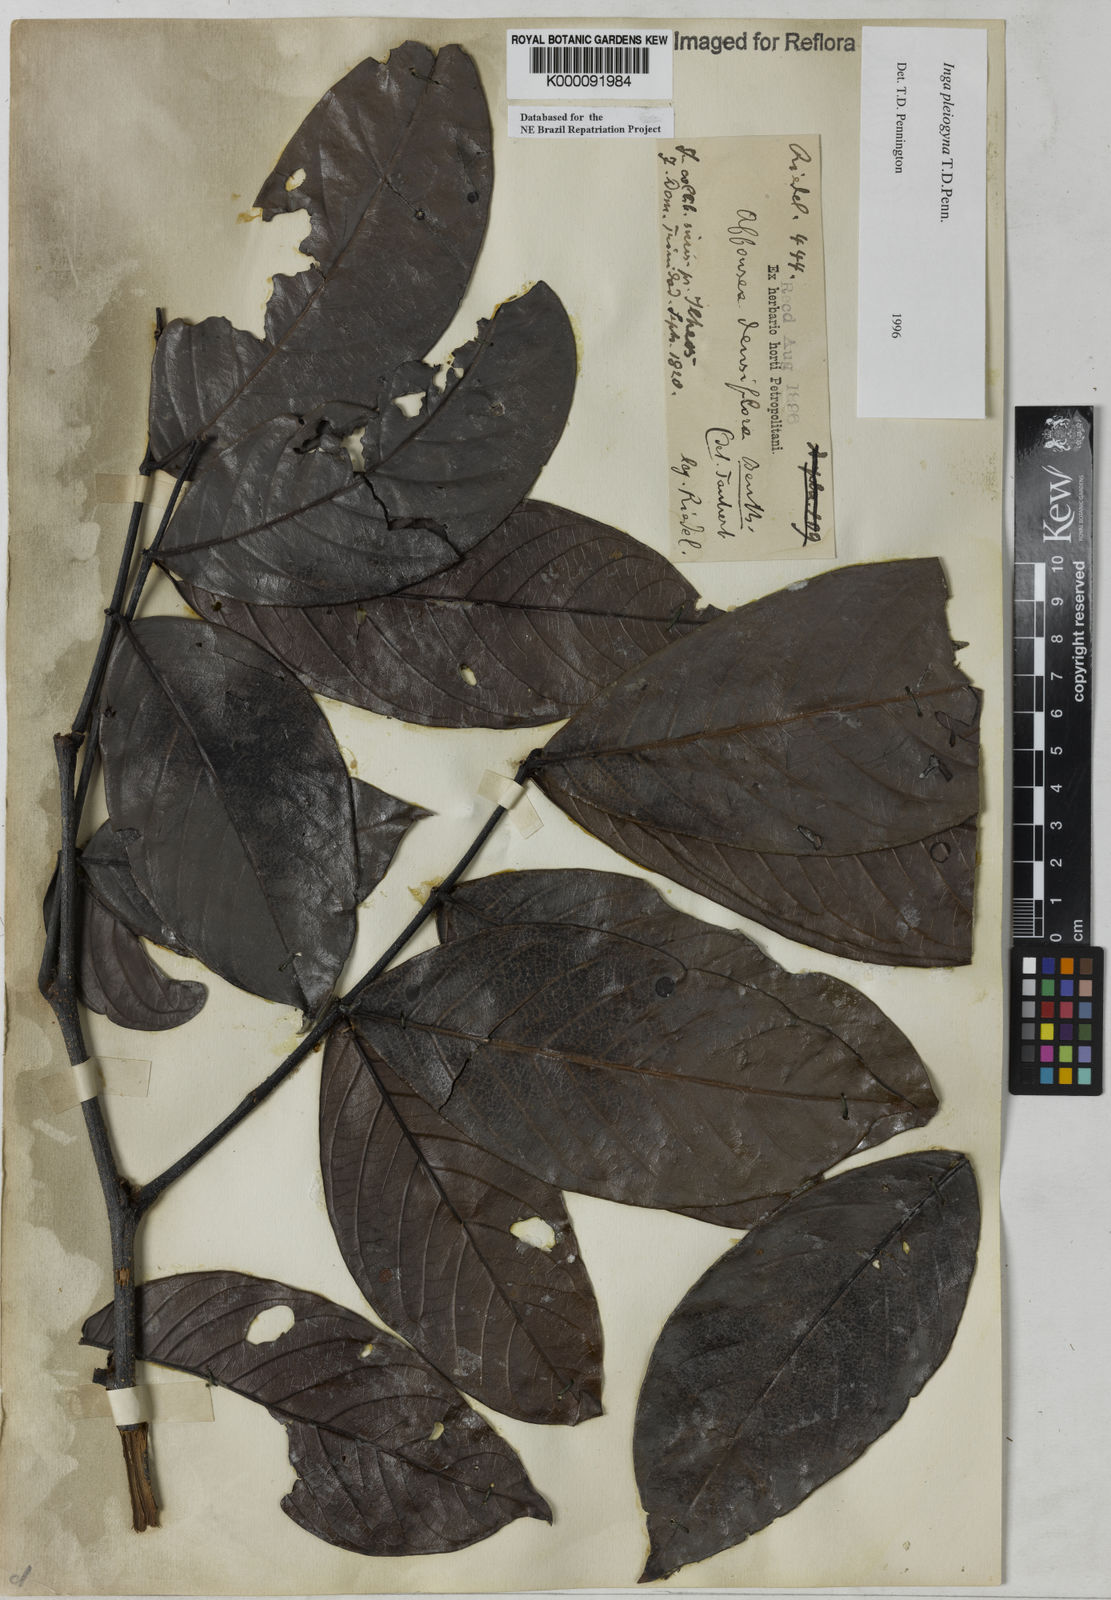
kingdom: Plantae
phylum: Tracheophyta
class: Magnoliopsida
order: Fabales
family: Fabaceae
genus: Inga
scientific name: Inga pleiogyna
